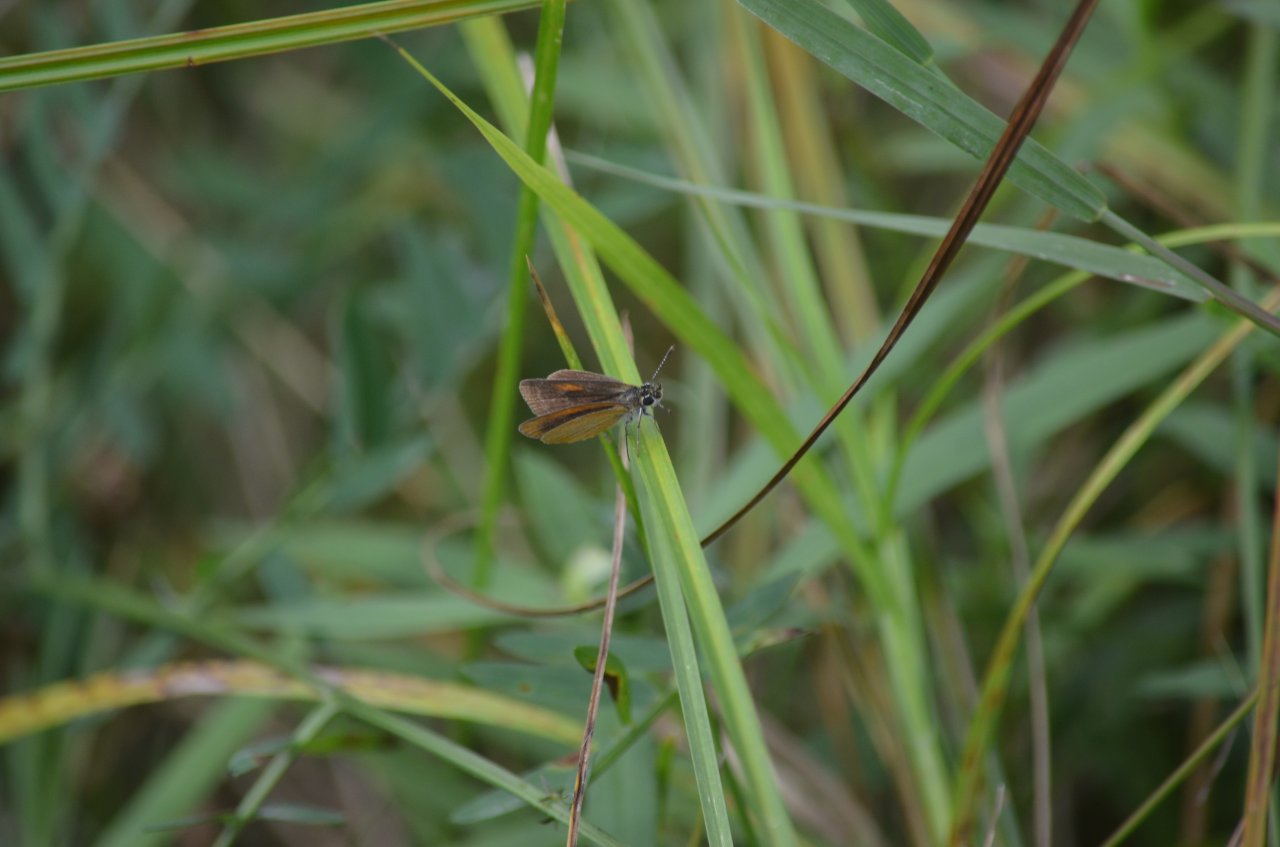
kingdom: Animalia
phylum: Arthropoda
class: Insecta
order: Lepidoptera
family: Hesperiidae
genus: Ancyloxypha
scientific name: Ancyloxypha numitor
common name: Least Skipper
